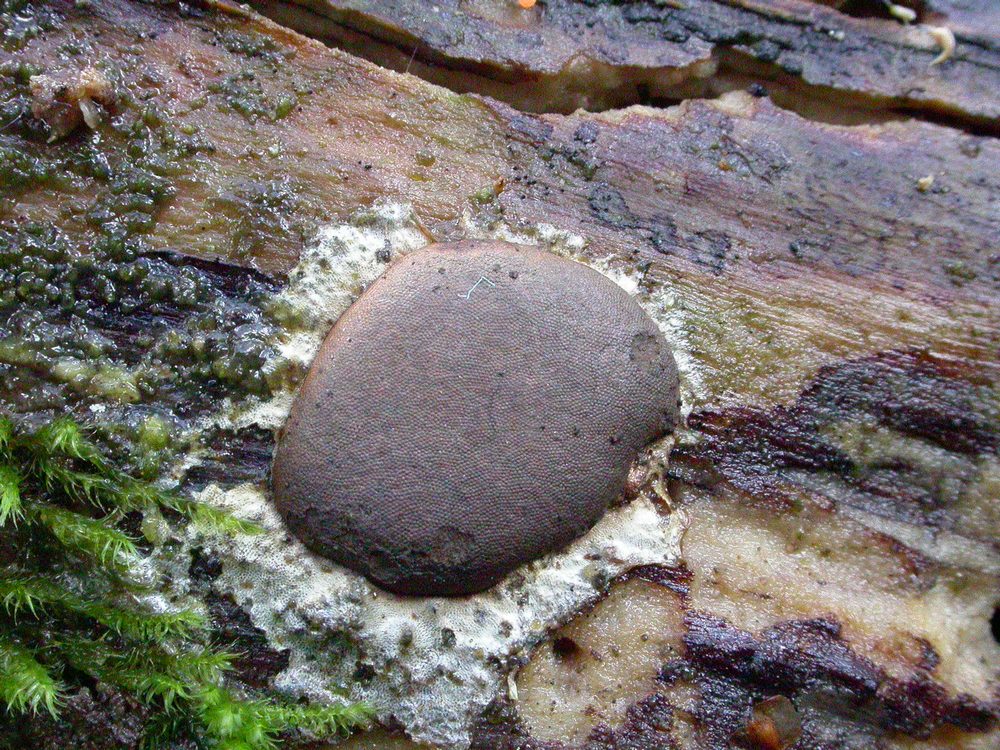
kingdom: Protozoa
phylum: Mycetozoa
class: Myxomycetes
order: Trichiales
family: Dictydiaethaliaceae
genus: Dictydiaethalium
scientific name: Dictydiaethalium plumbeum
